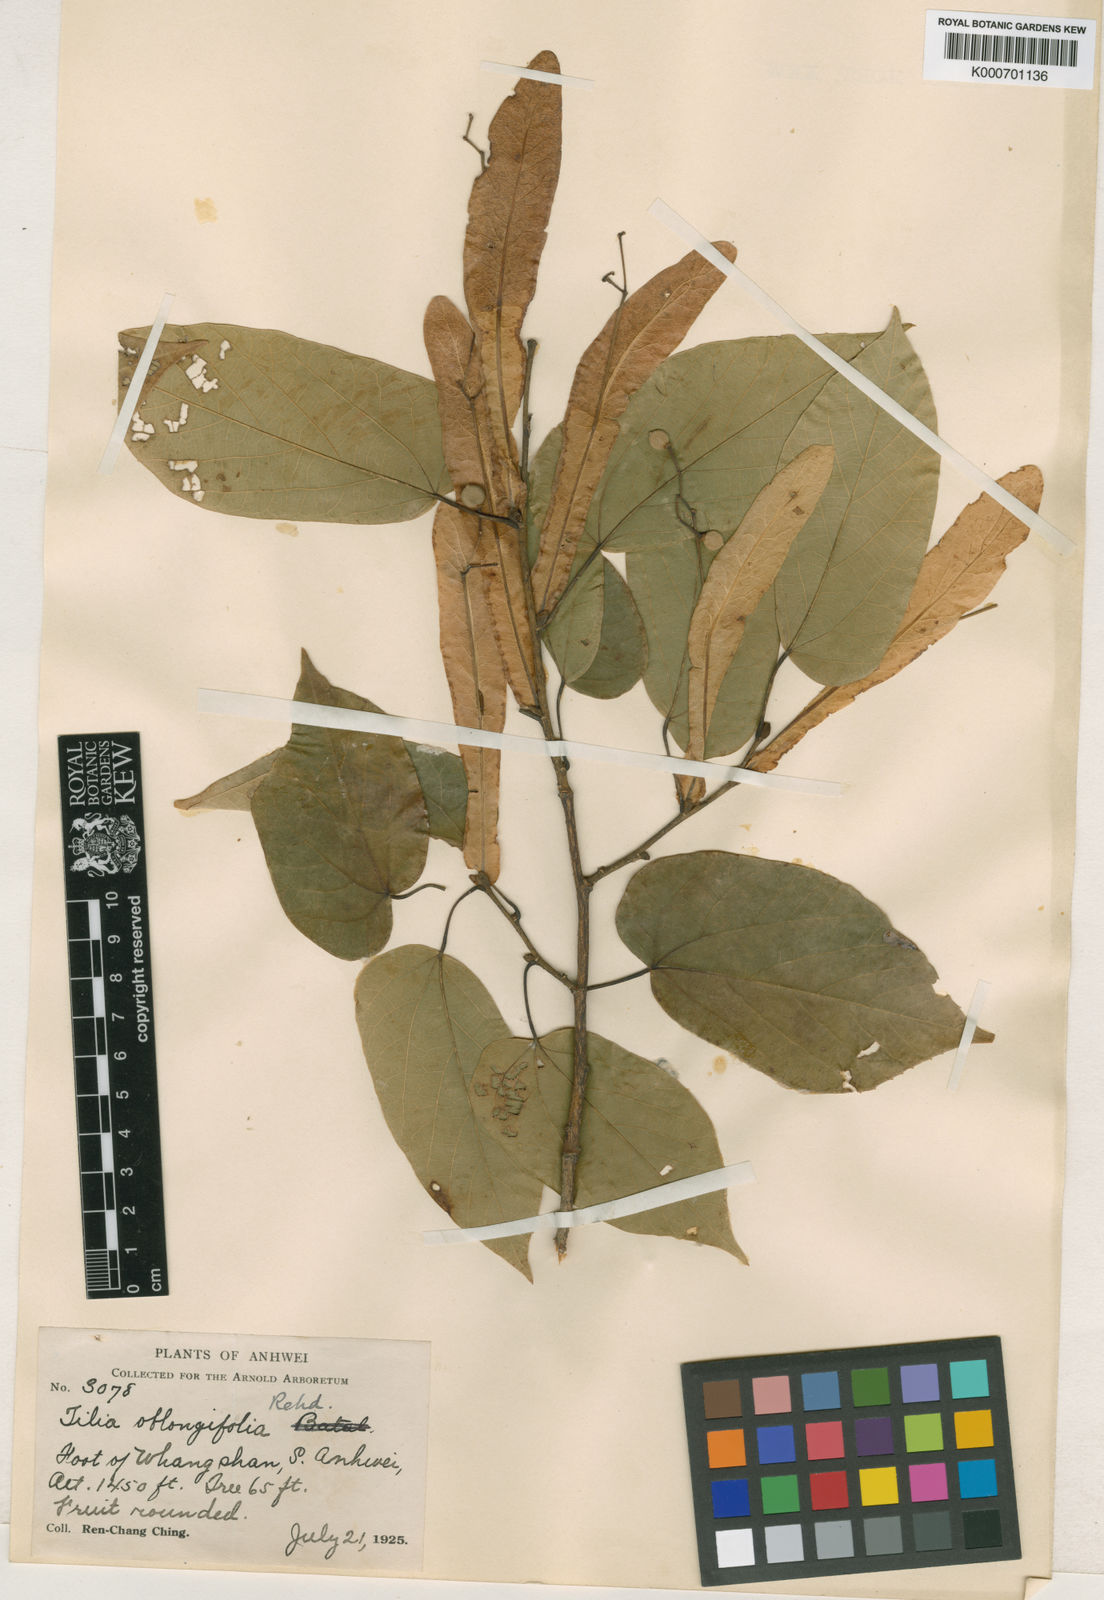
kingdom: Plantae
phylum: Tracheophyta
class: Magnoliopsida
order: Malvales
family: Malvaceae
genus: Tilia
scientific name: Tilia tuan
